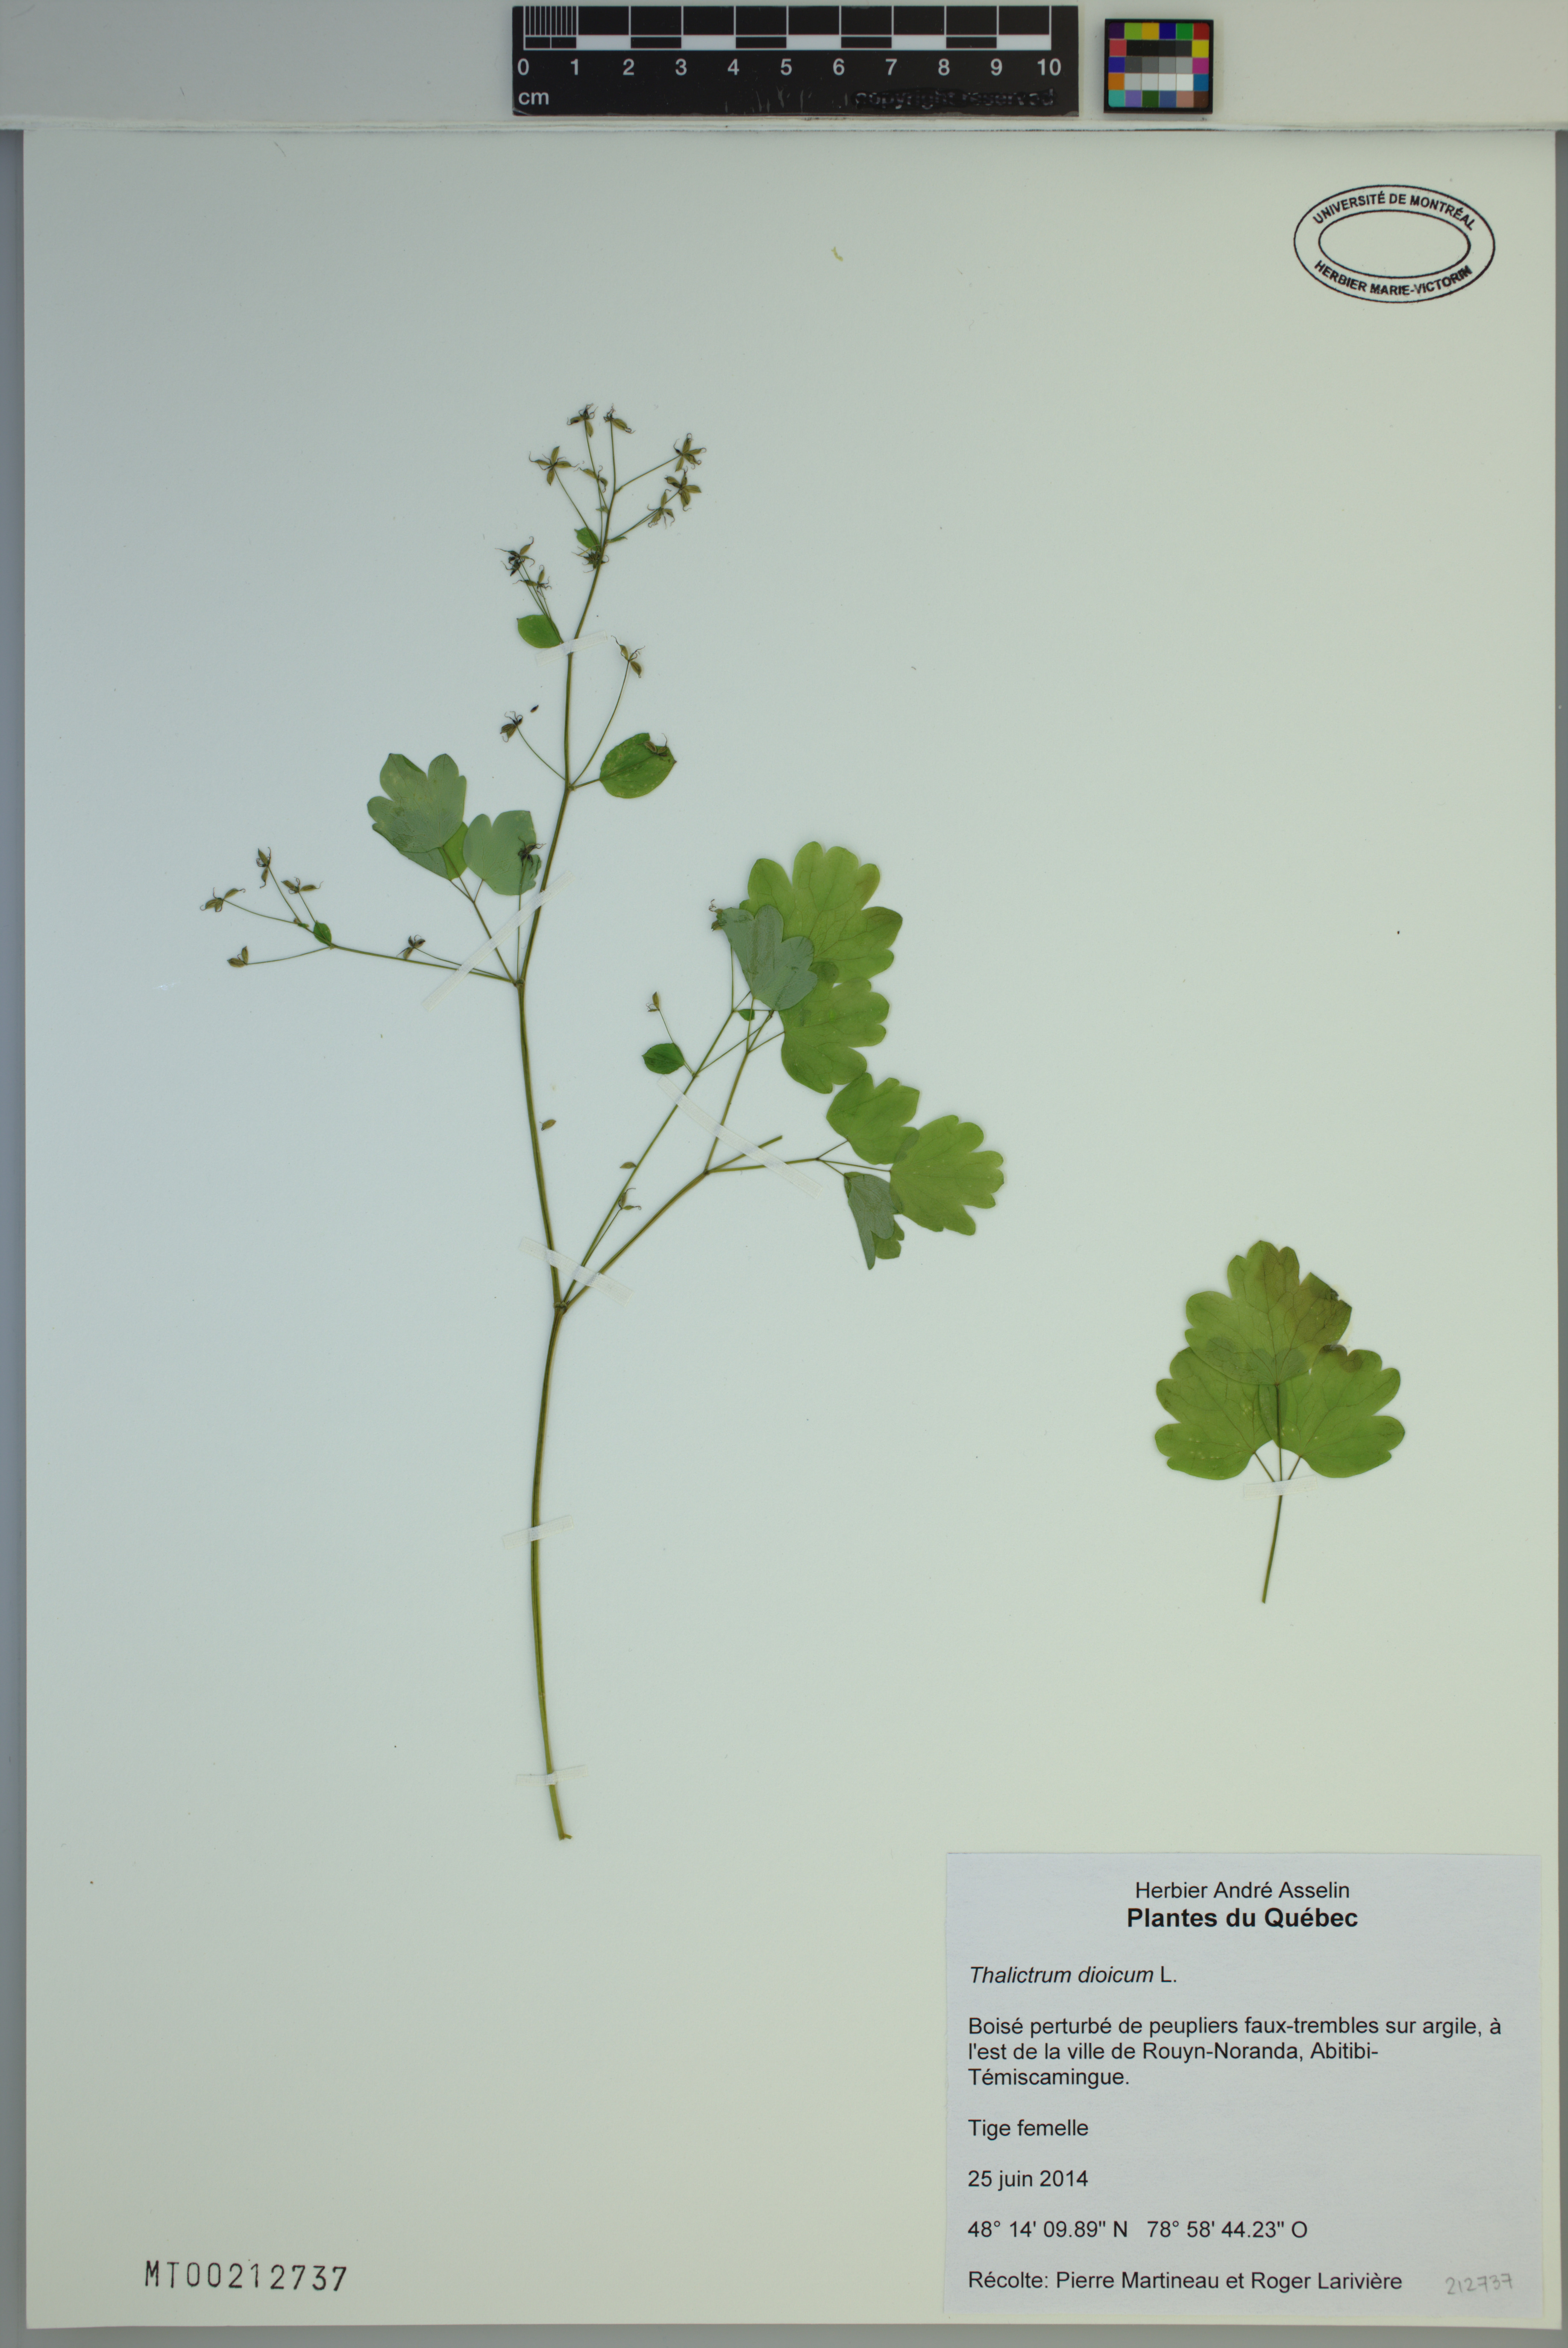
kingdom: Plantae
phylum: Tracheophyta
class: Magnoliopsida
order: Ranunculales
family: Ranunculaceae
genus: Thalictrum
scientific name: Thalictrum dioicum
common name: Early meadow-rue
